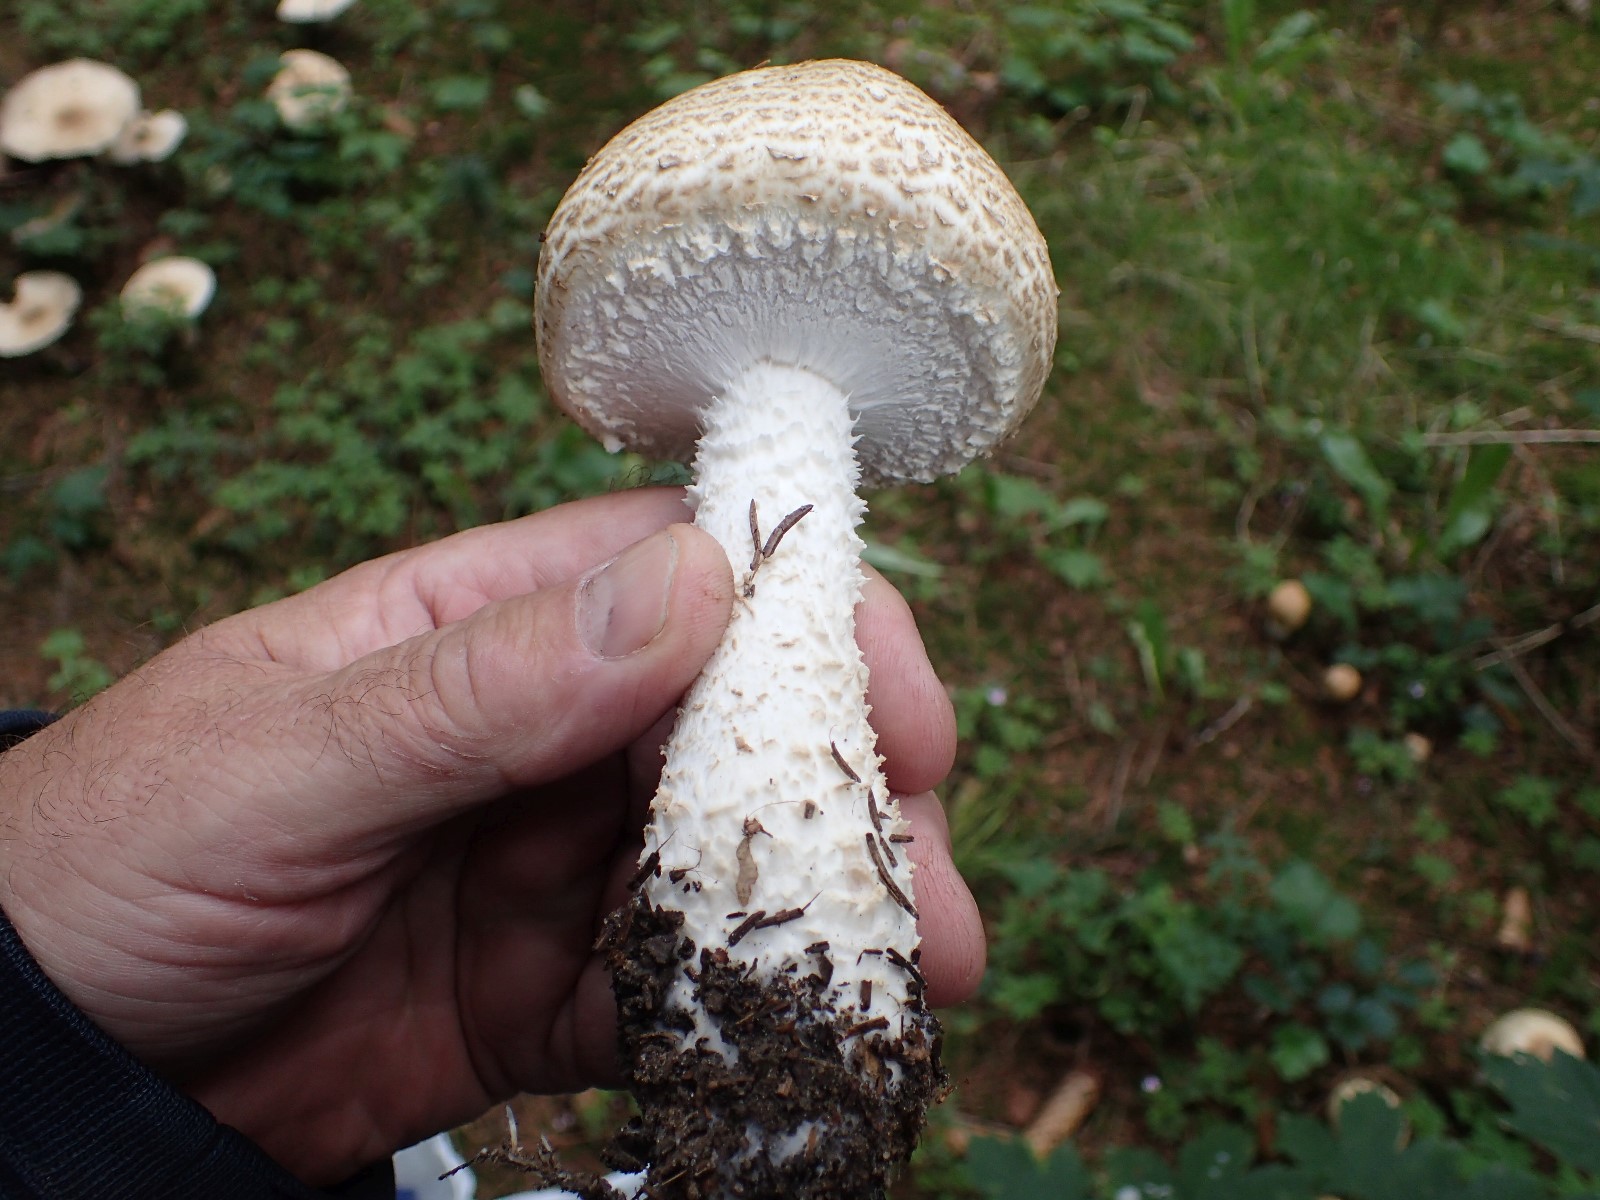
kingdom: Fungi
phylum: Basidiomycota
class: Agaricomycetes
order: Agaricales
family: Agaricaceae
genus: Agaricus
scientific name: Agaricus augustus
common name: prægtig champignon
